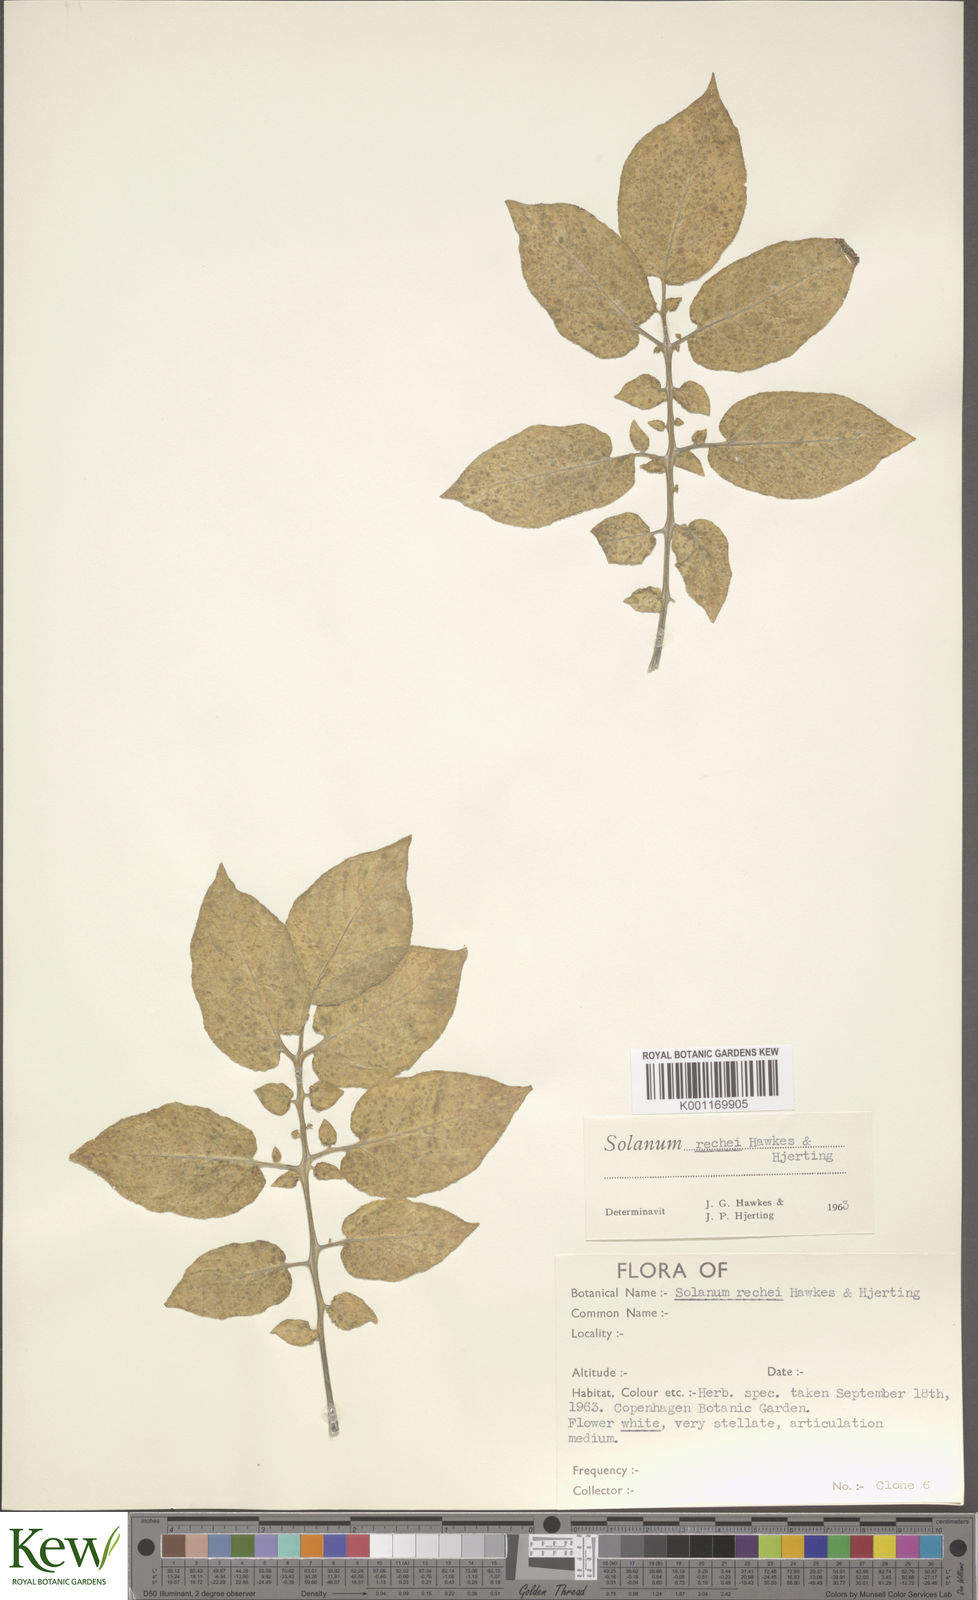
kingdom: Plantae
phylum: Tracheophyta
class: Magnoliopsida
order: Solanales
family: Solanaceae
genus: Solanum
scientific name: Solanum rechei
